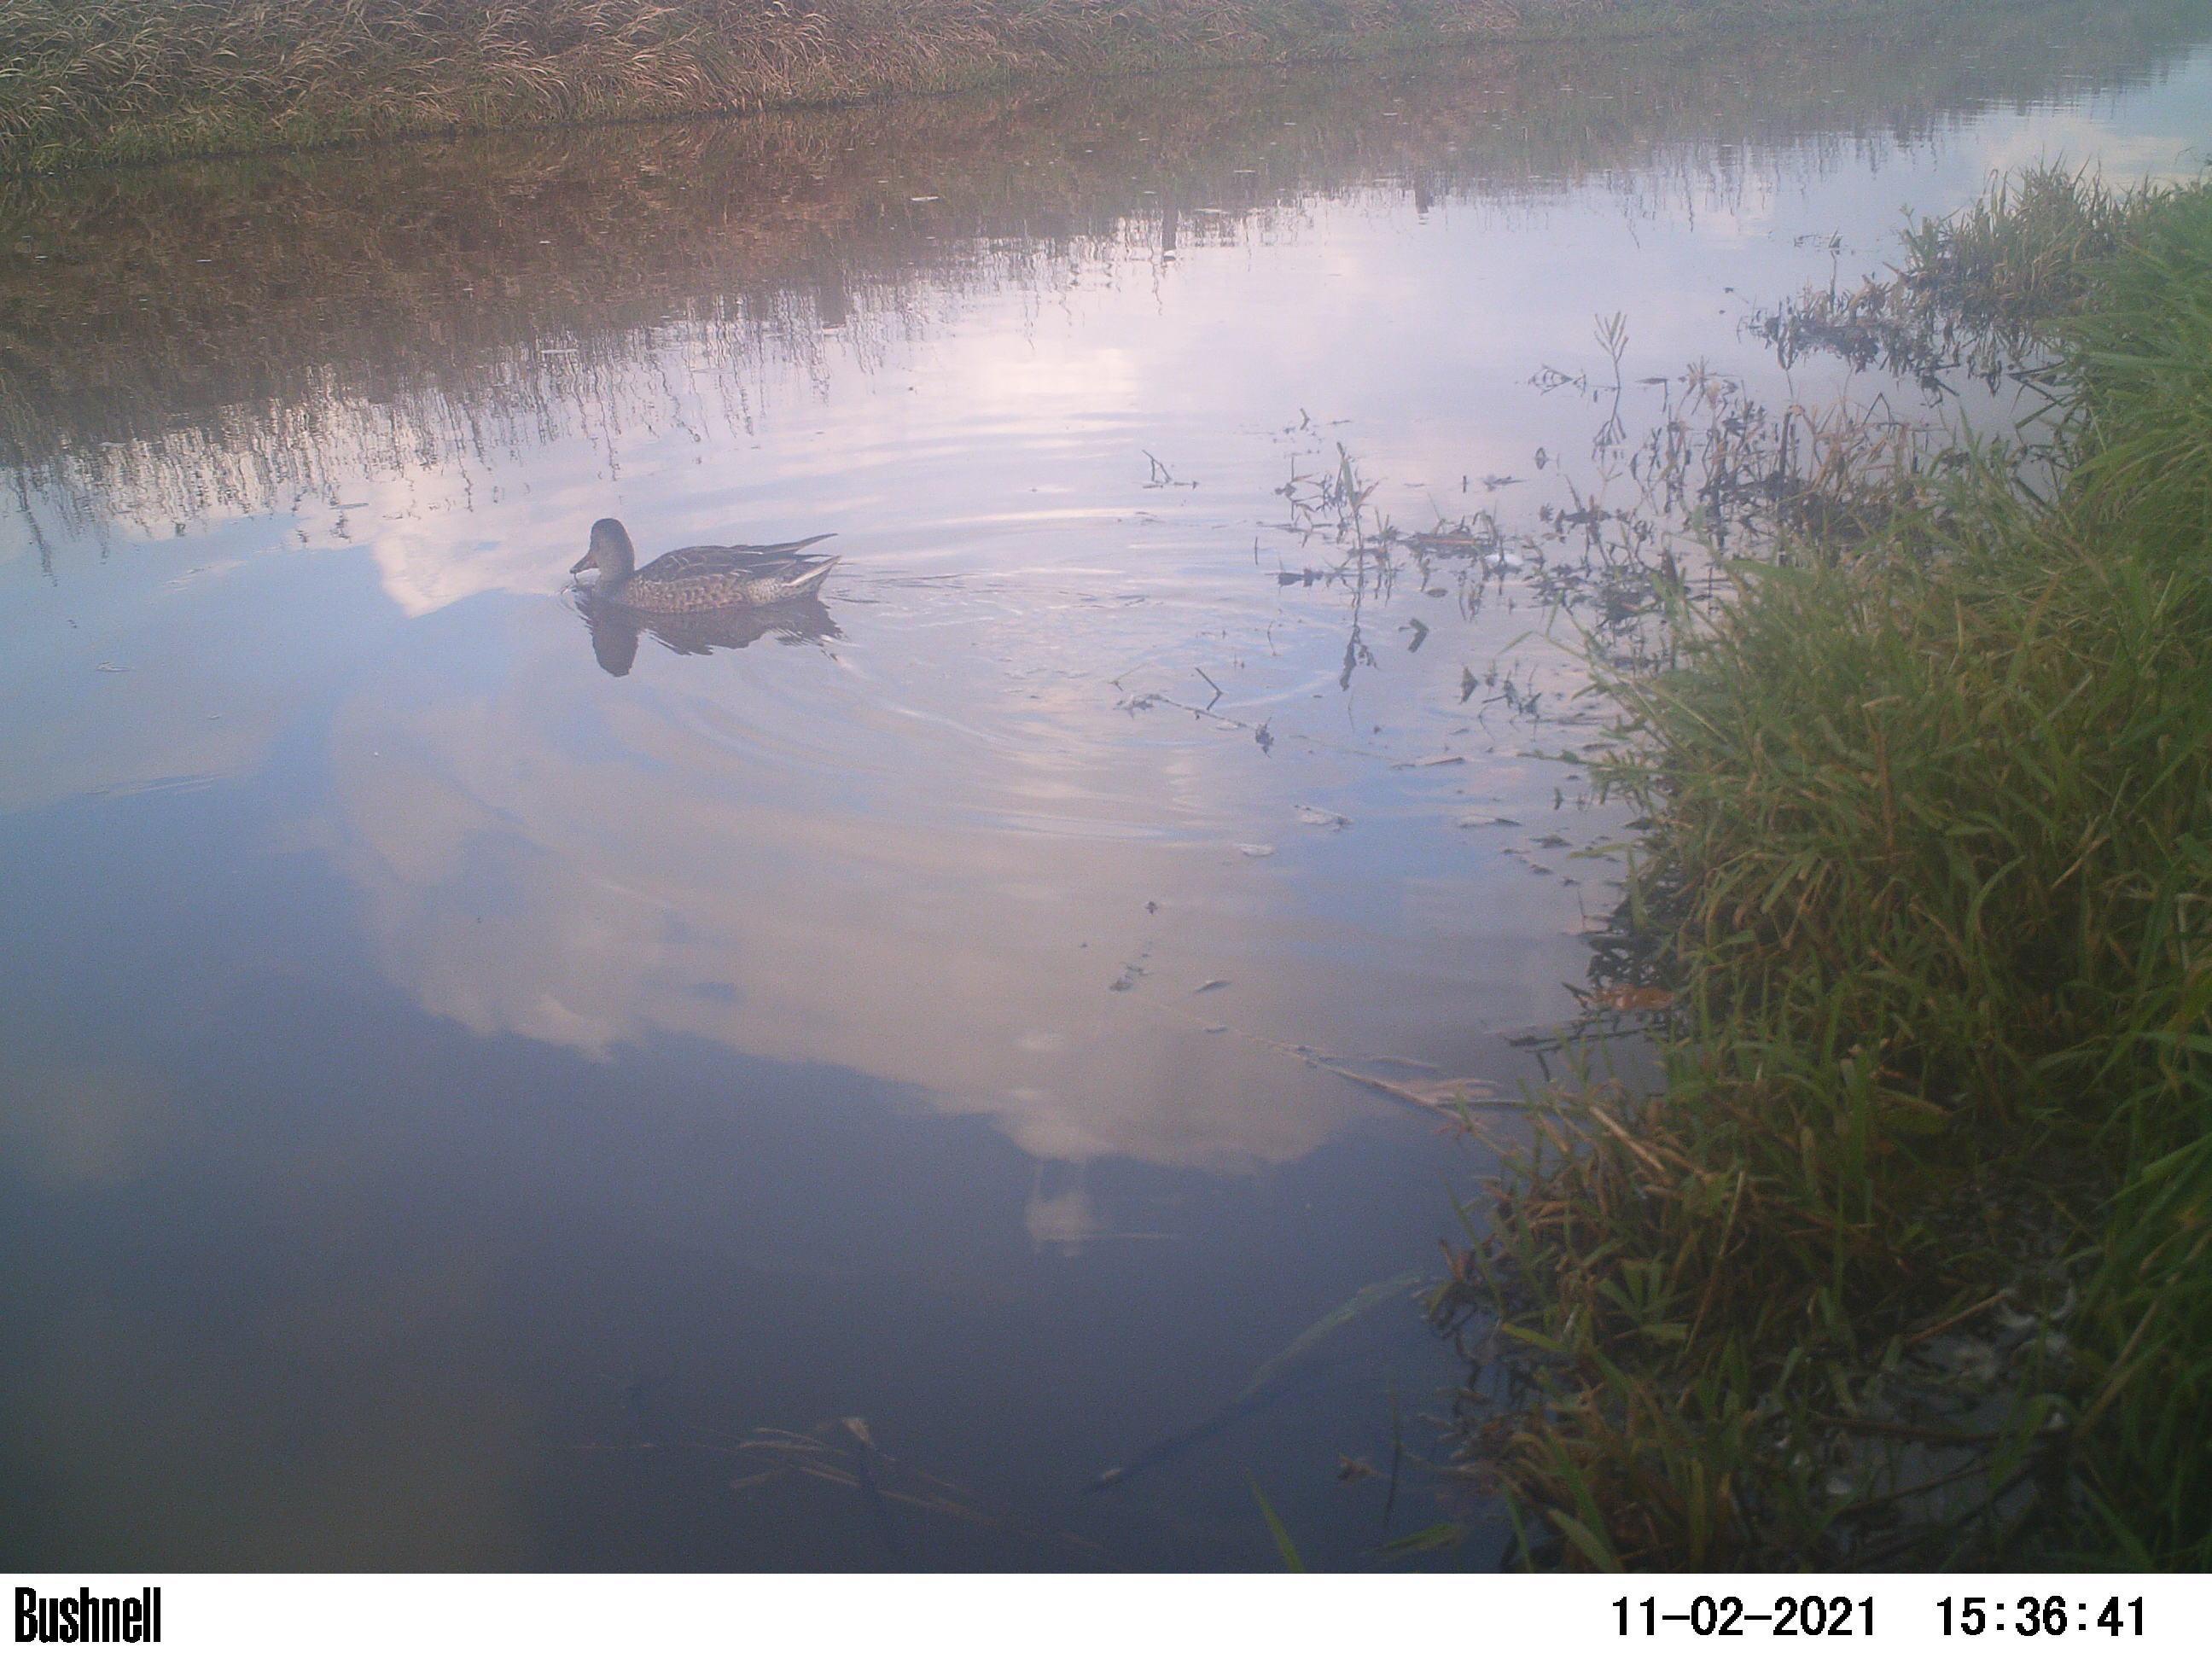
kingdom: Animalia
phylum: Chordata
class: Aves
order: Anseriformes
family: Anatidae
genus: Anas
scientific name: Anas
